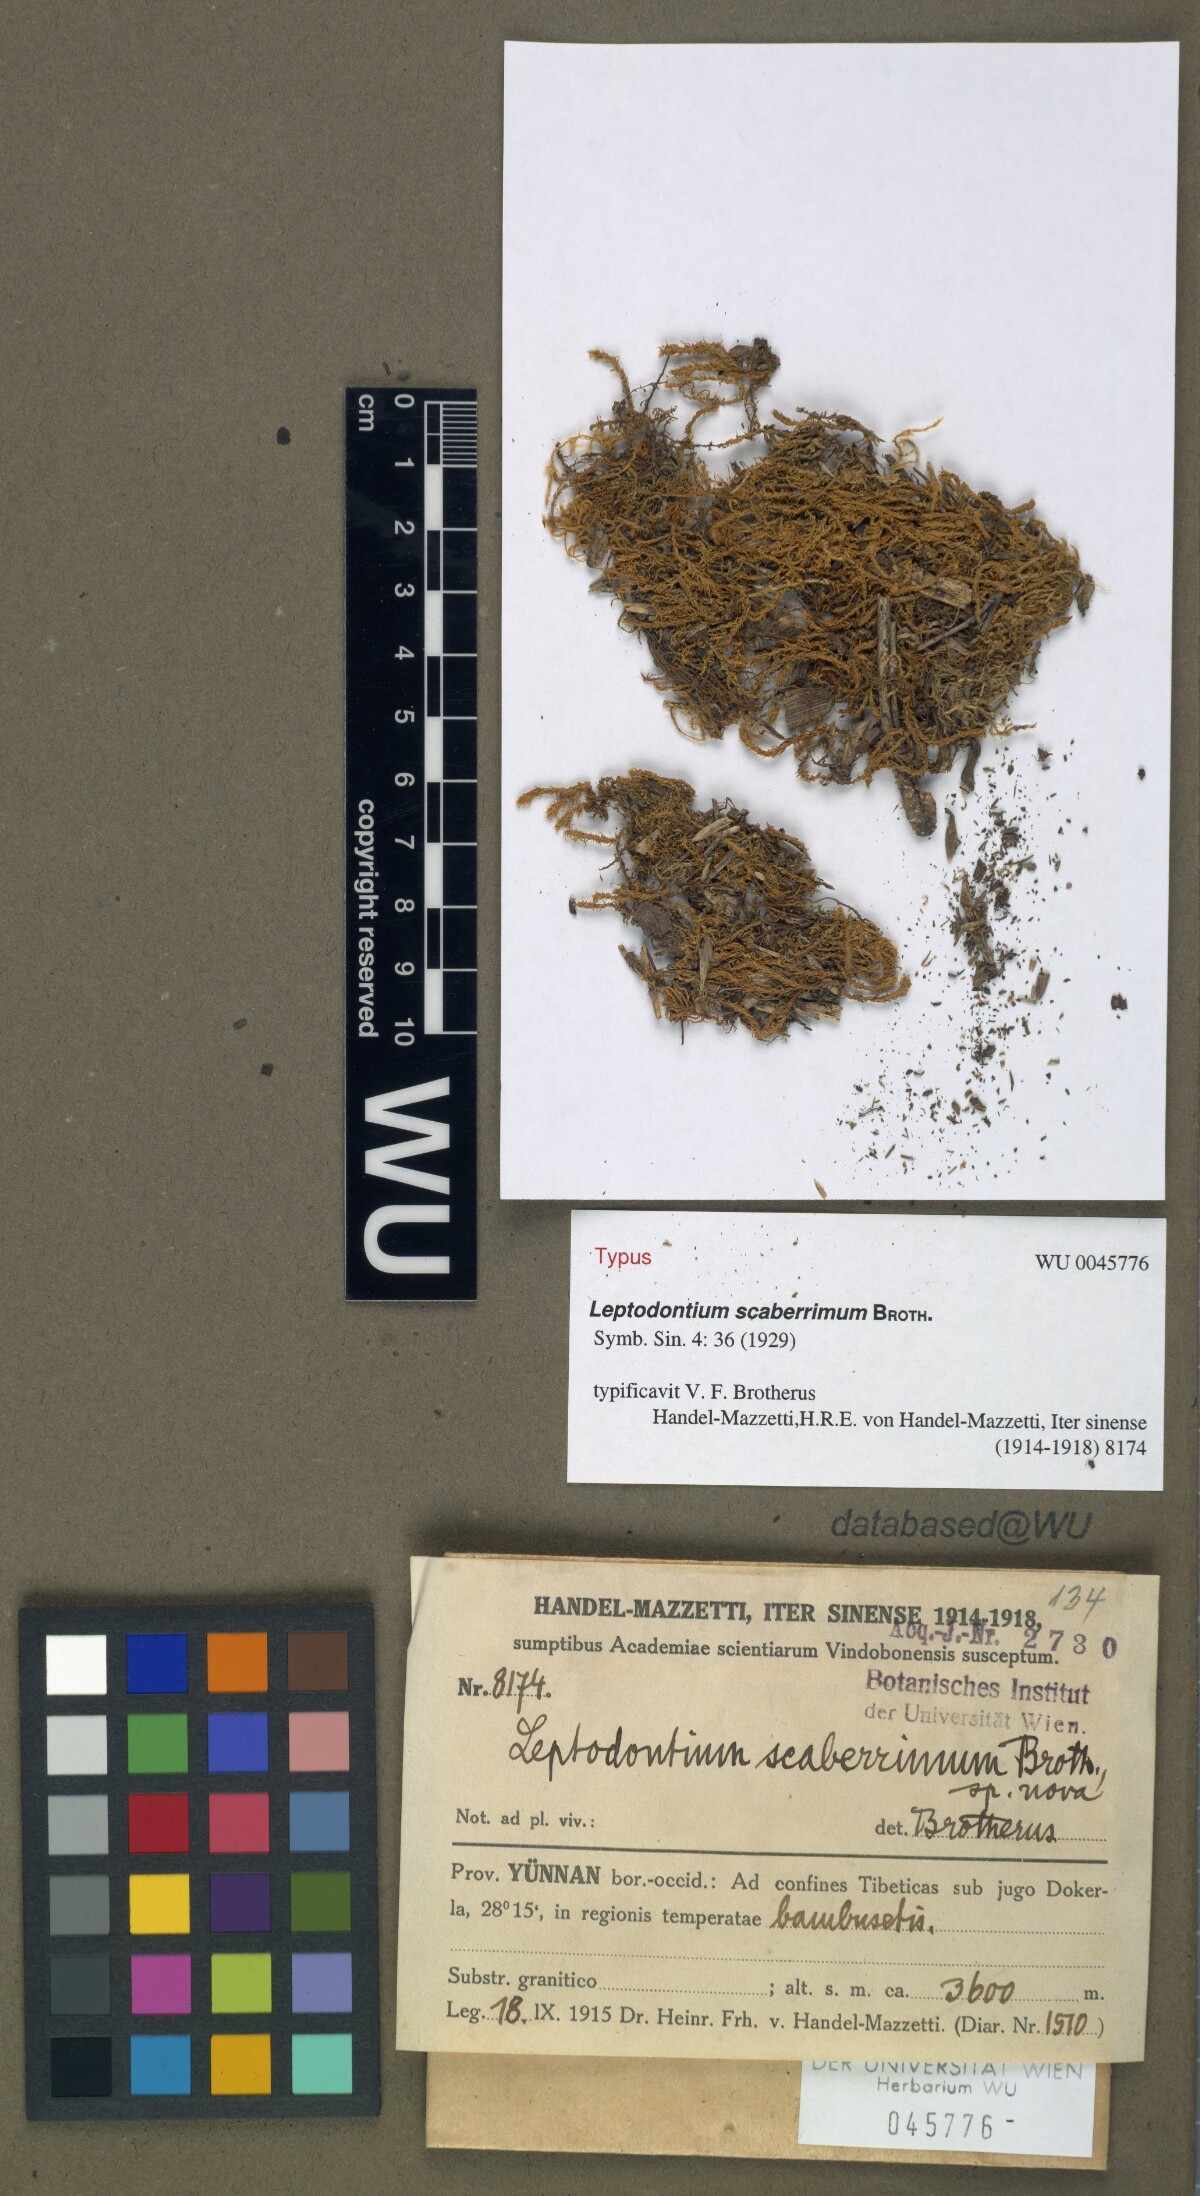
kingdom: Plantae
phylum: Bryophyta
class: Bryopsida
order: Pottiales
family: Pottiaceae
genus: Leptodontium
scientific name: Leptodontium scaberrimum
